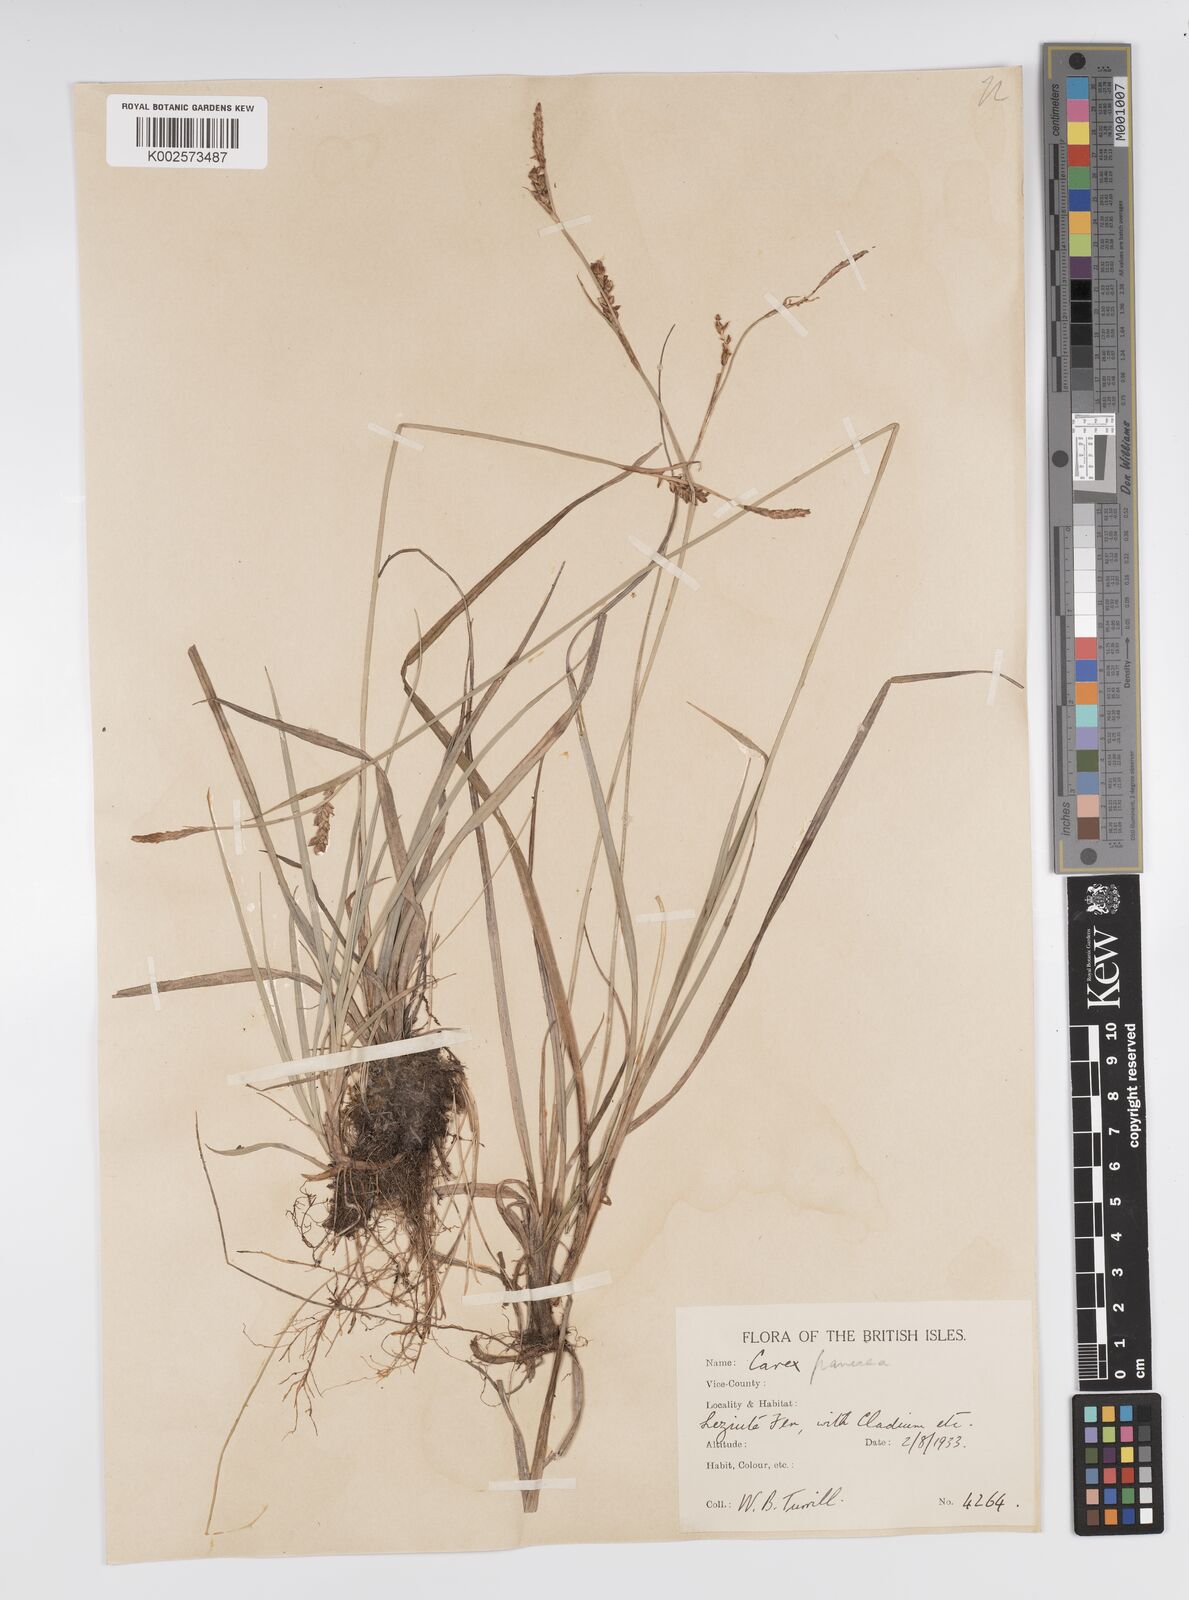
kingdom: Plantae
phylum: Tracheophyta
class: Liliopsida
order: Poales
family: Cyperaceae
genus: Carex
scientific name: Carex panicea
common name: Carnation sedge
